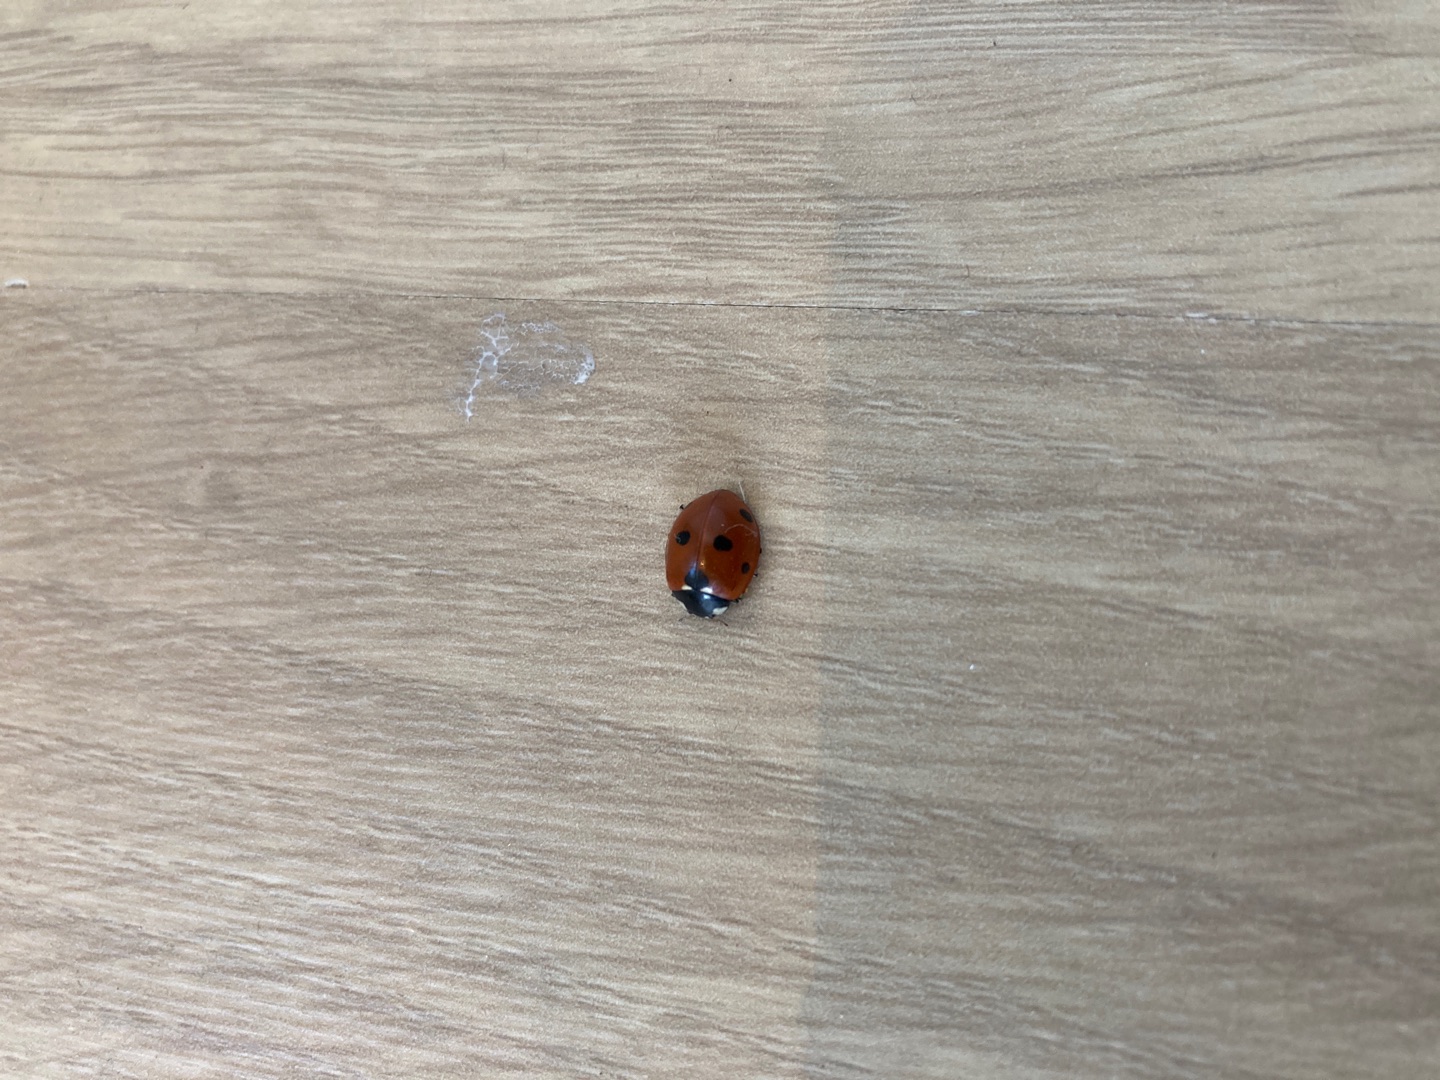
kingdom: Animalia
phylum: Arthropoda
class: Insecta
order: Coleoptera
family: Coccinellidae
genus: Coccinella
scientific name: Coccinella septempunctata
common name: Syvplettet mariehøne
